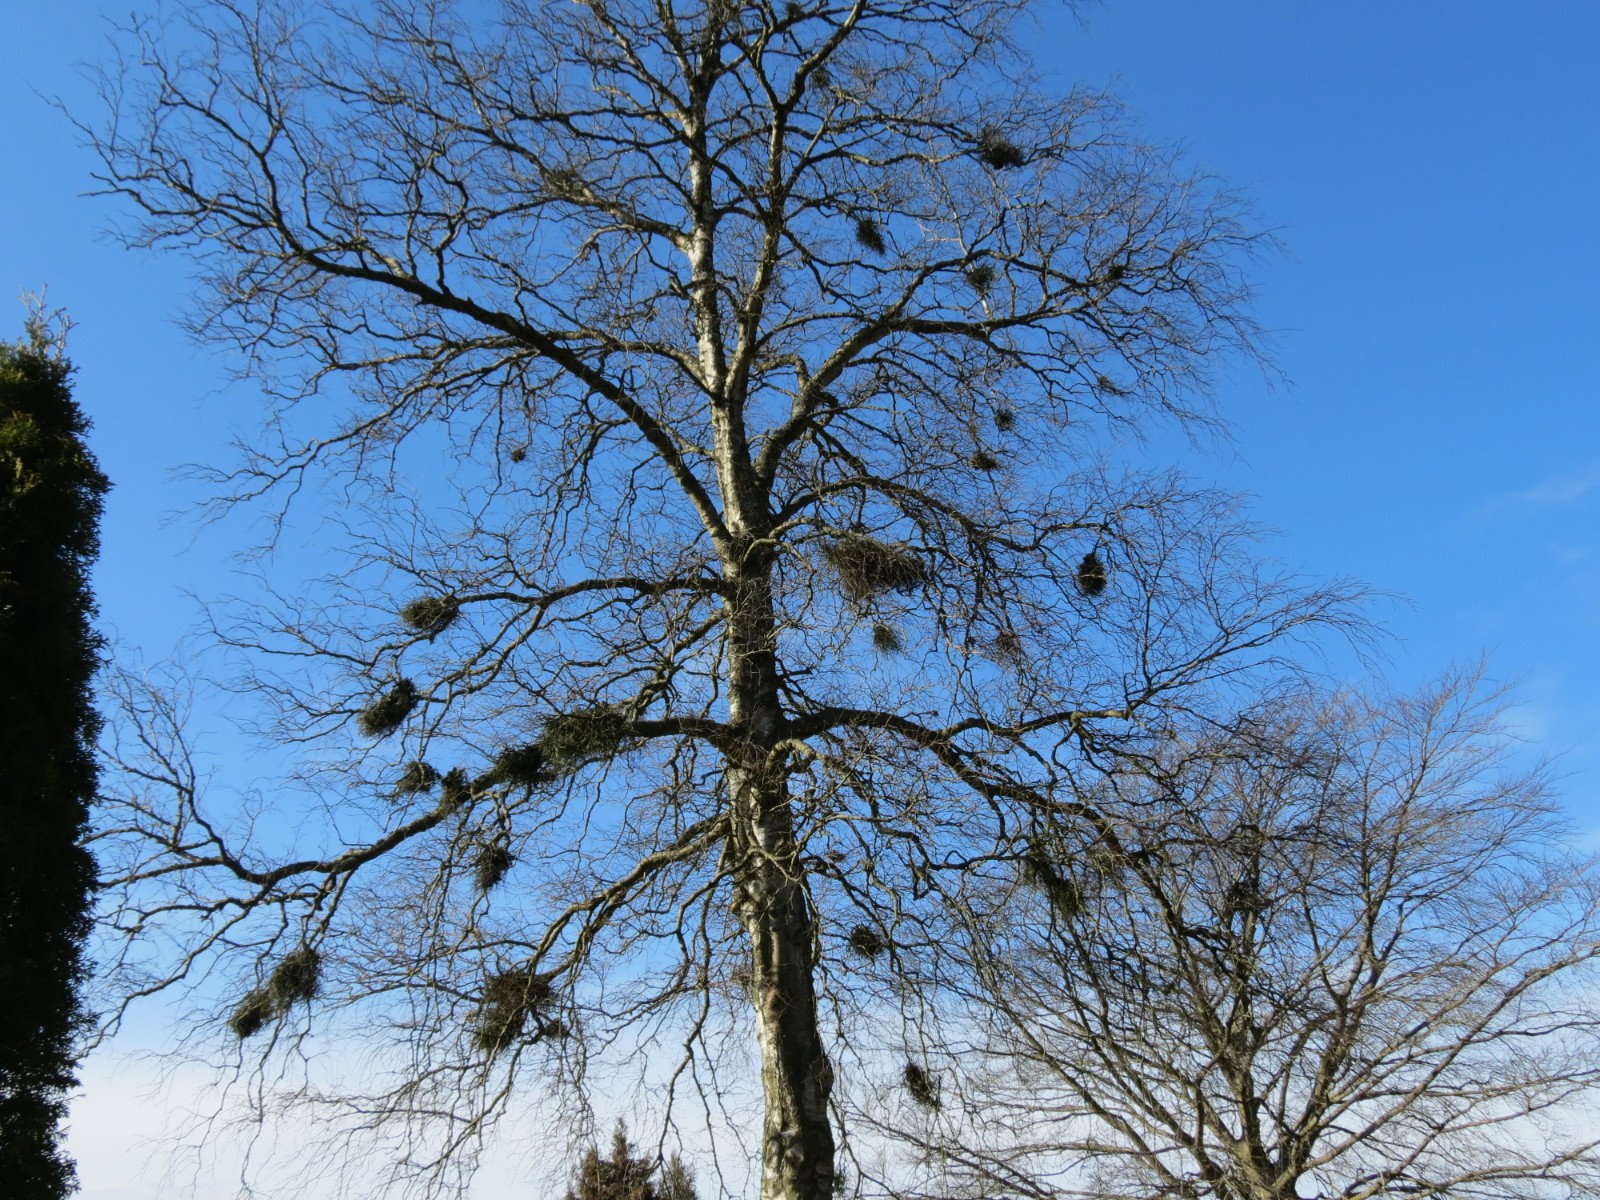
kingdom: Fungi
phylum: Ascomycota
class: Taphrinomycetes
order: Taphrinales
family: Taphrinaceae
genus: Taphrina
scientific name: Taphrina betulina
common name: hekse-sækdug
